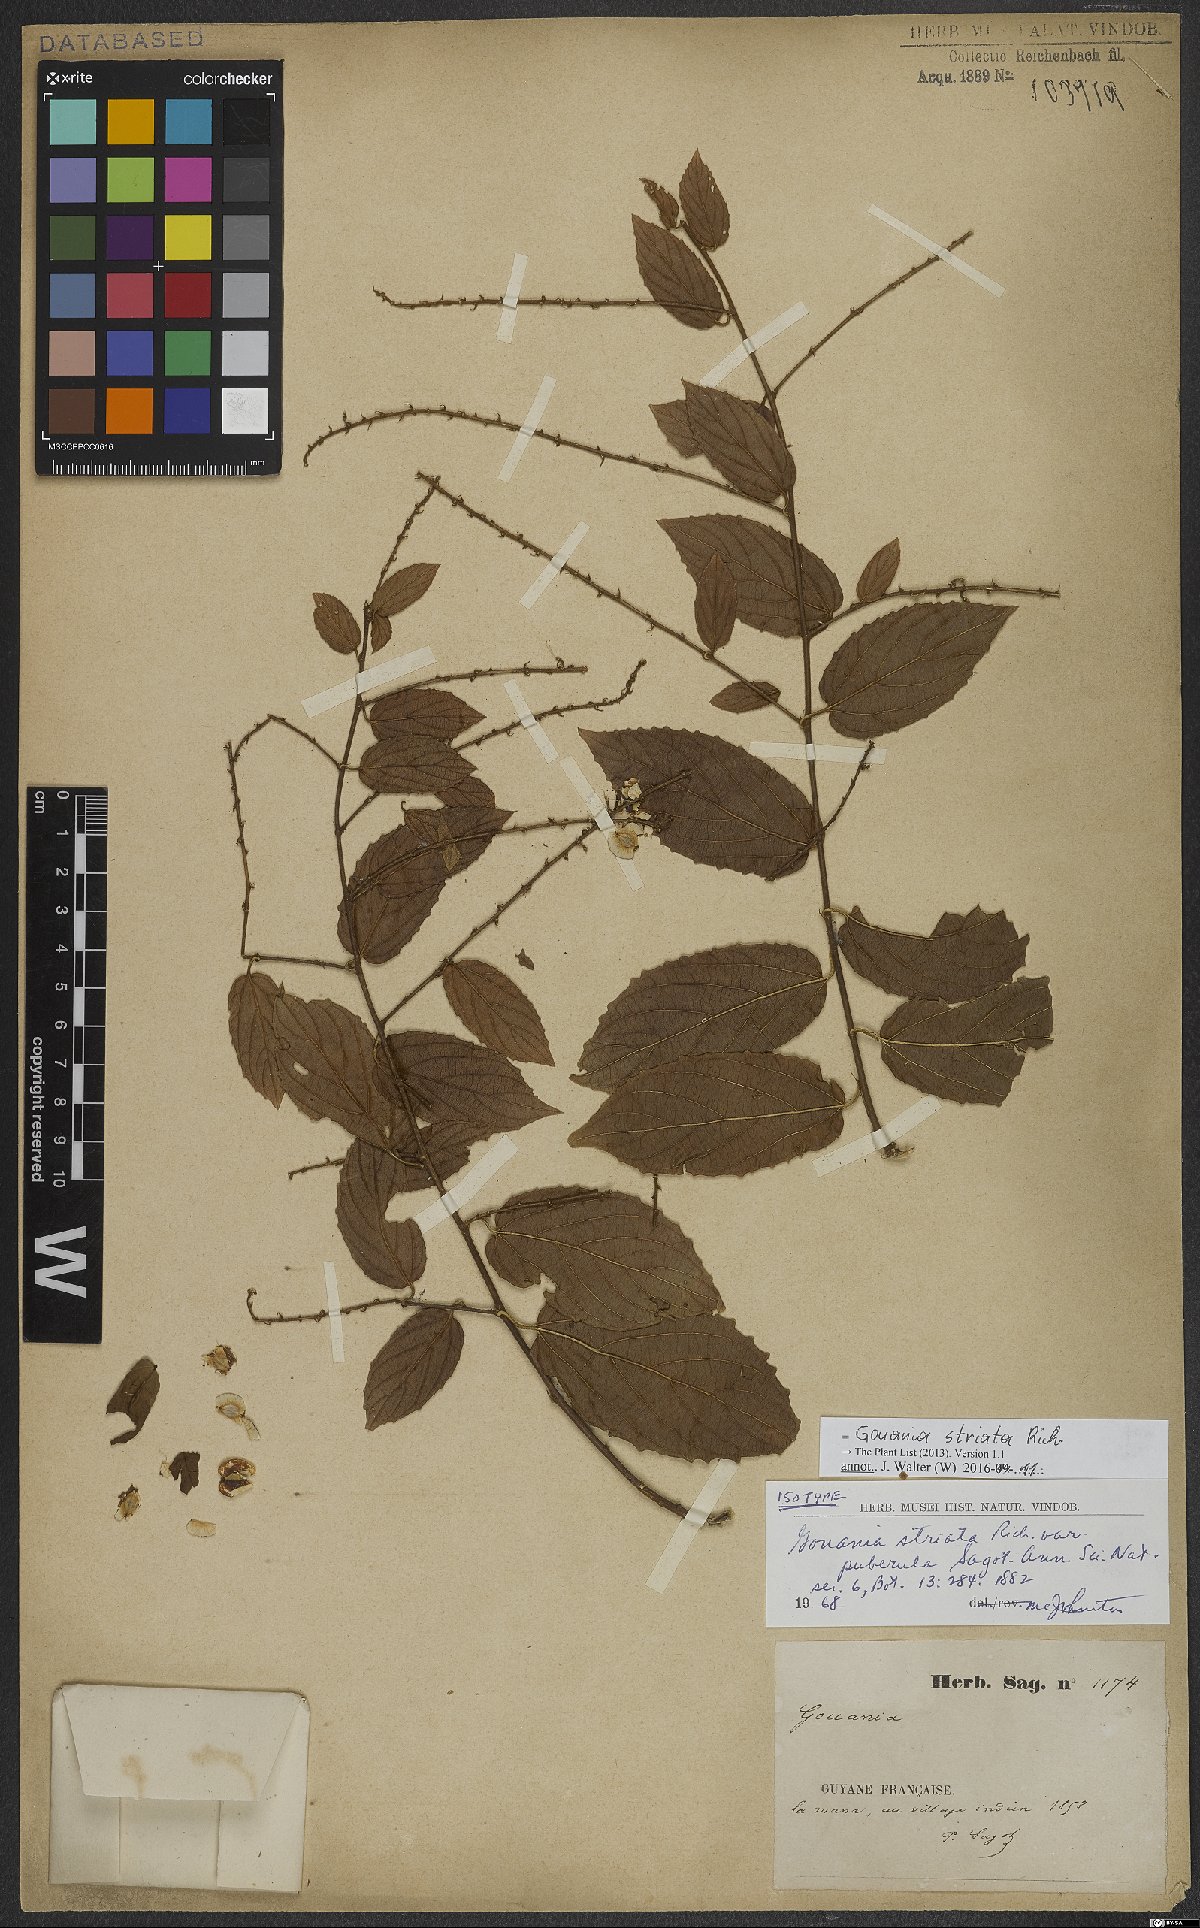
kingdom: Plantae
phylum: Tracheophyta
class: Magnoliopsida
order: Rosales
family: Rhamnaceae
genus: Gouania
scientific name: Gouania striata
